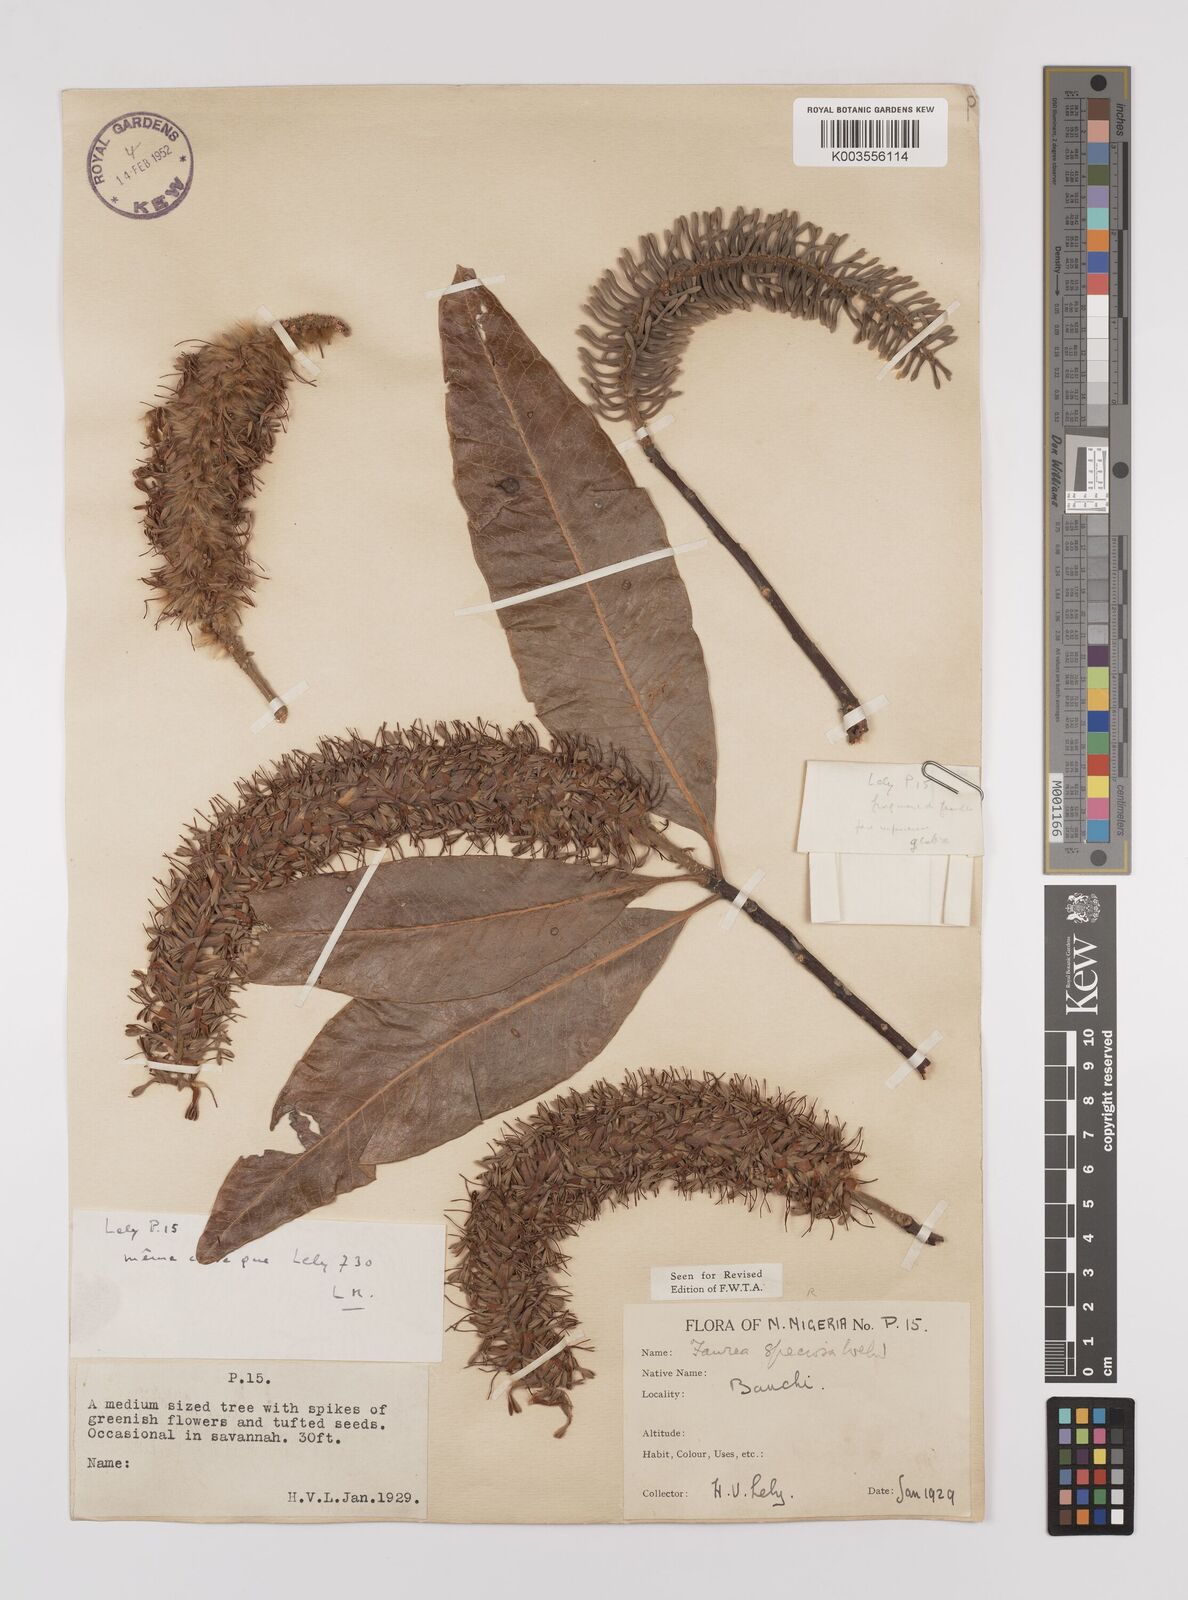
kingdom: Plantae
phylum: Tracheophyta
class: Magnoliopsida
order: Proteales
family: Proteaceae
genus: Faurea
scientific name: Faurea rochetiana
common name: Broad-leaved beech
